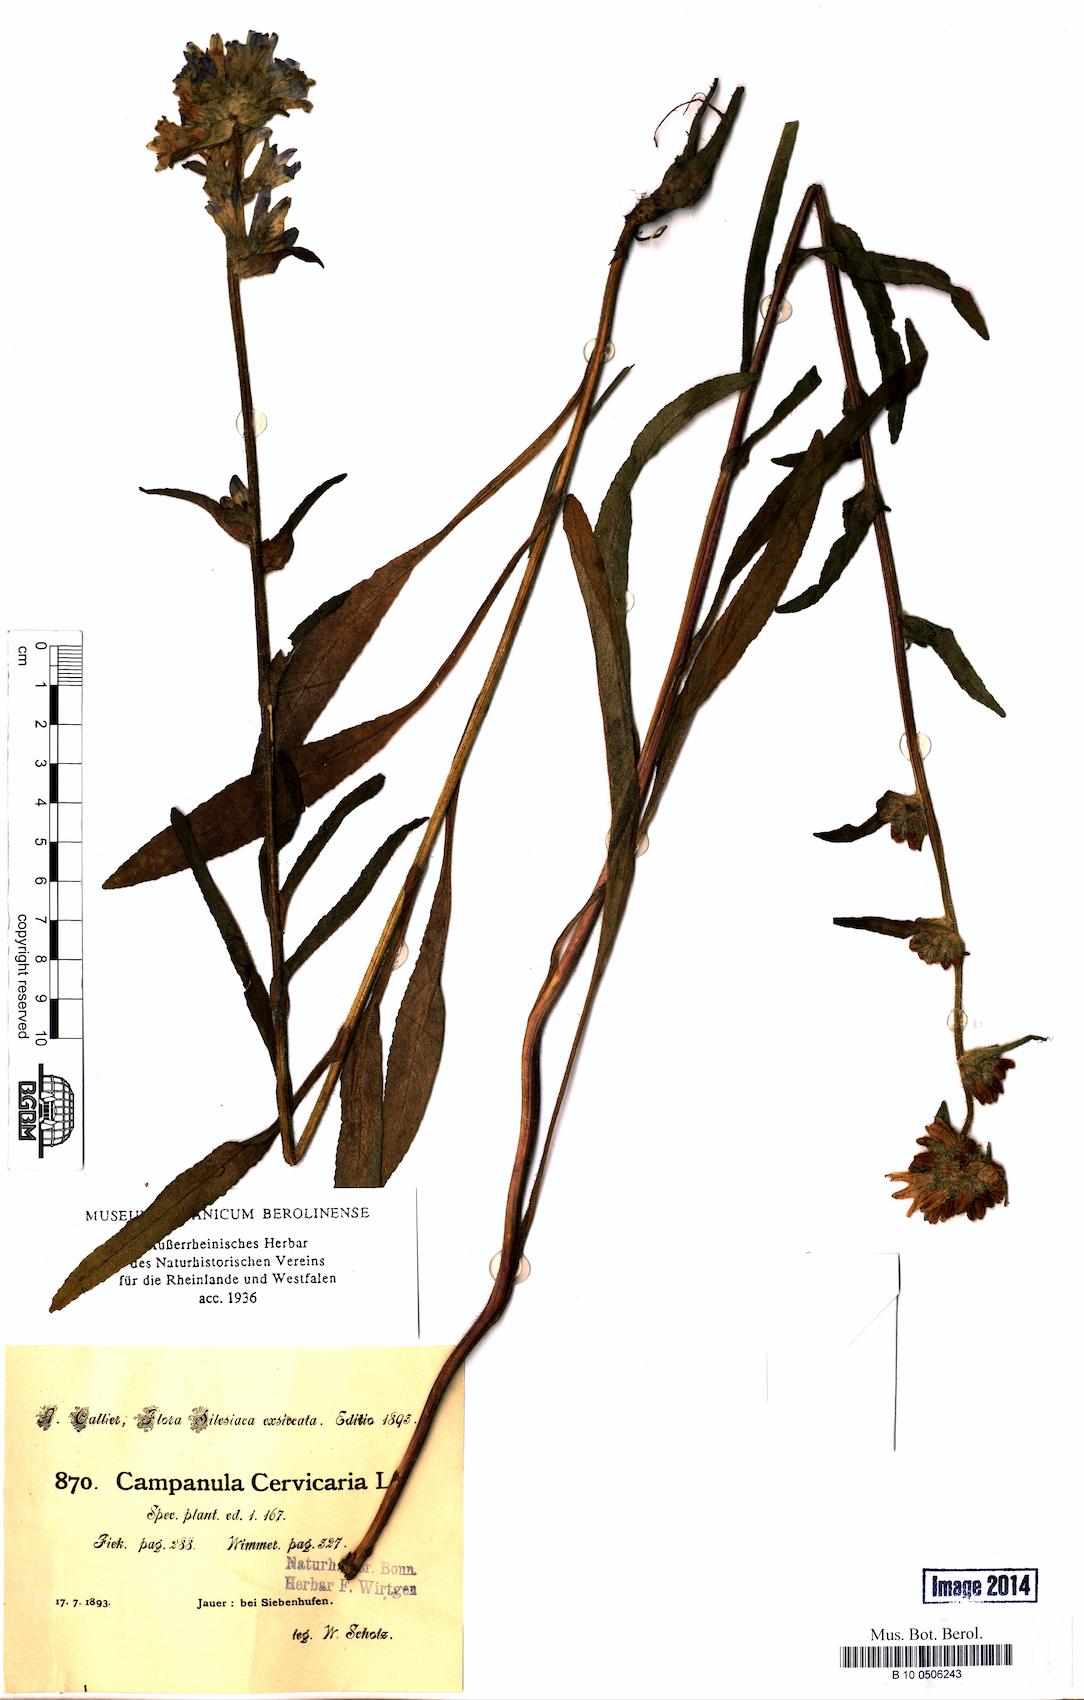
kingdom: Plantae
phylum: Tracheophyta
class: Magnoliopsida
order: Asterales
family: Campanulaceae
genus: Campanula
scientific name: Campanula cervicaria
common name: Bristly bellflower
